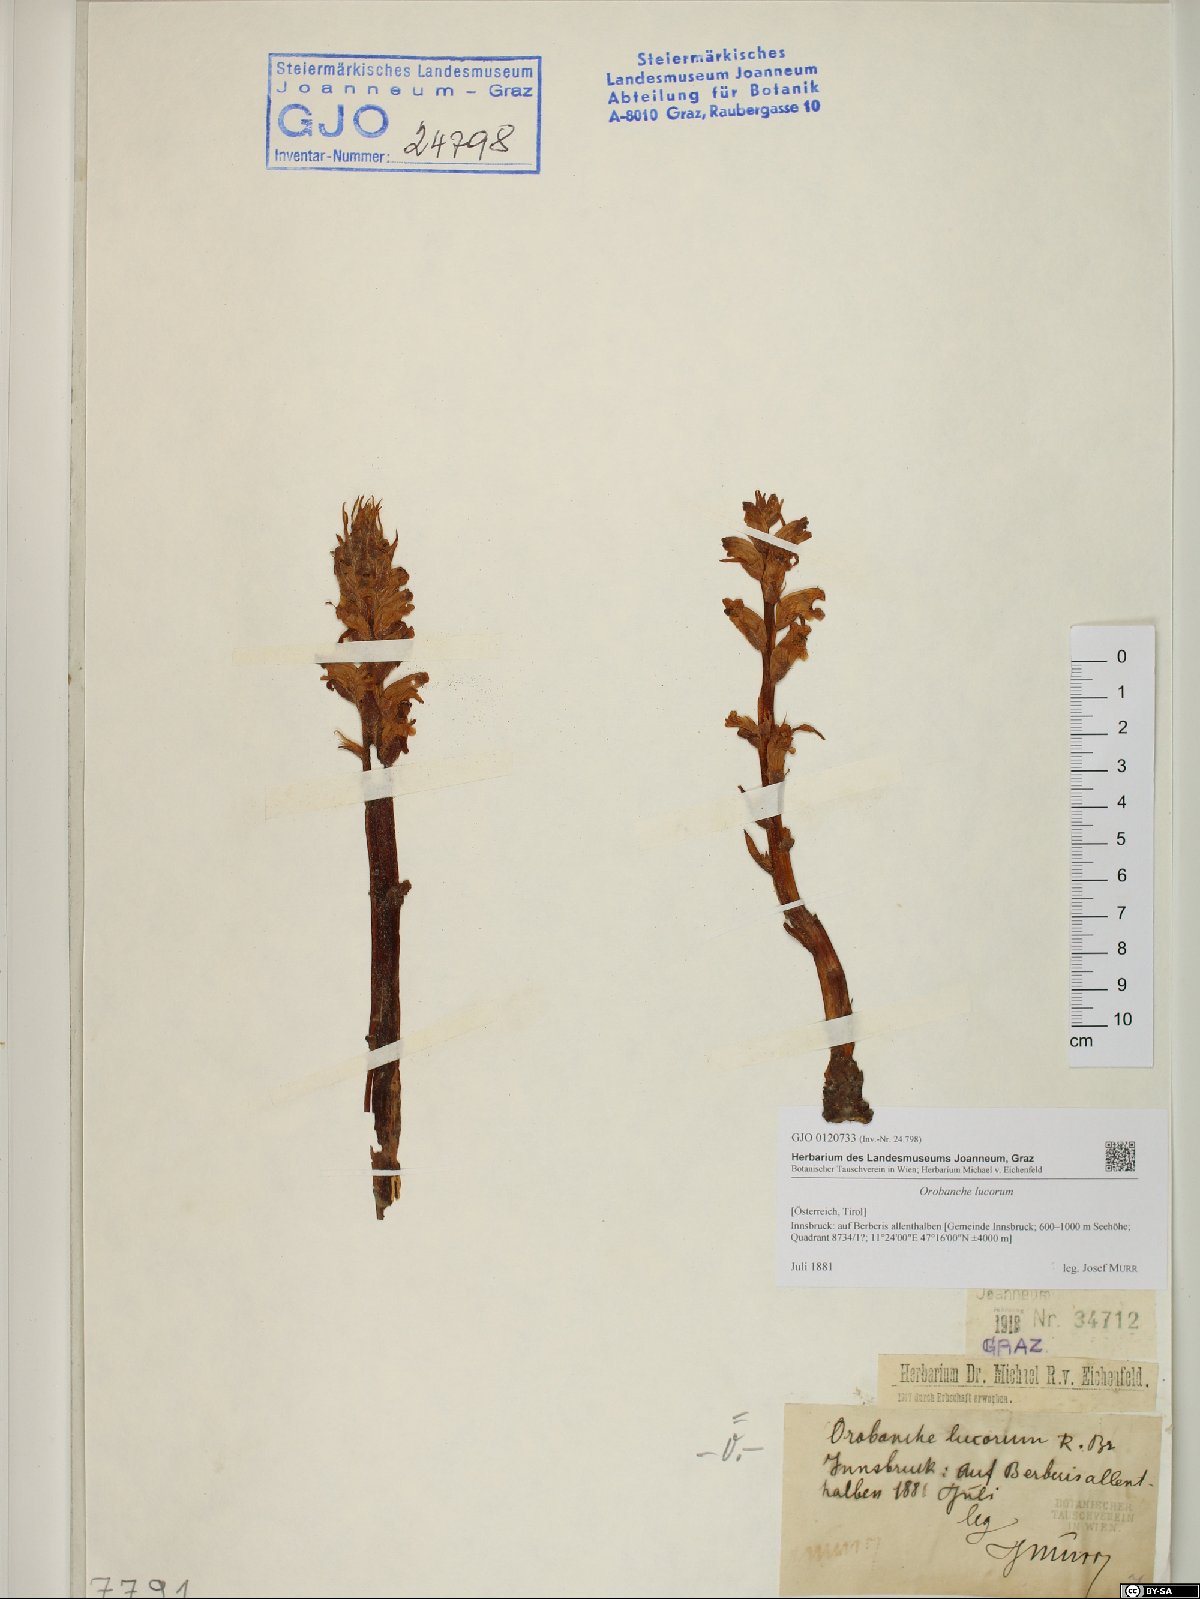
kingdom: Plantae
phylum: Tracheophyta
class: Magnoliopsida
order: Lamiales
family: Orobanchaceae
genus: Orobanche
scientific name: Orobanche lucorum
